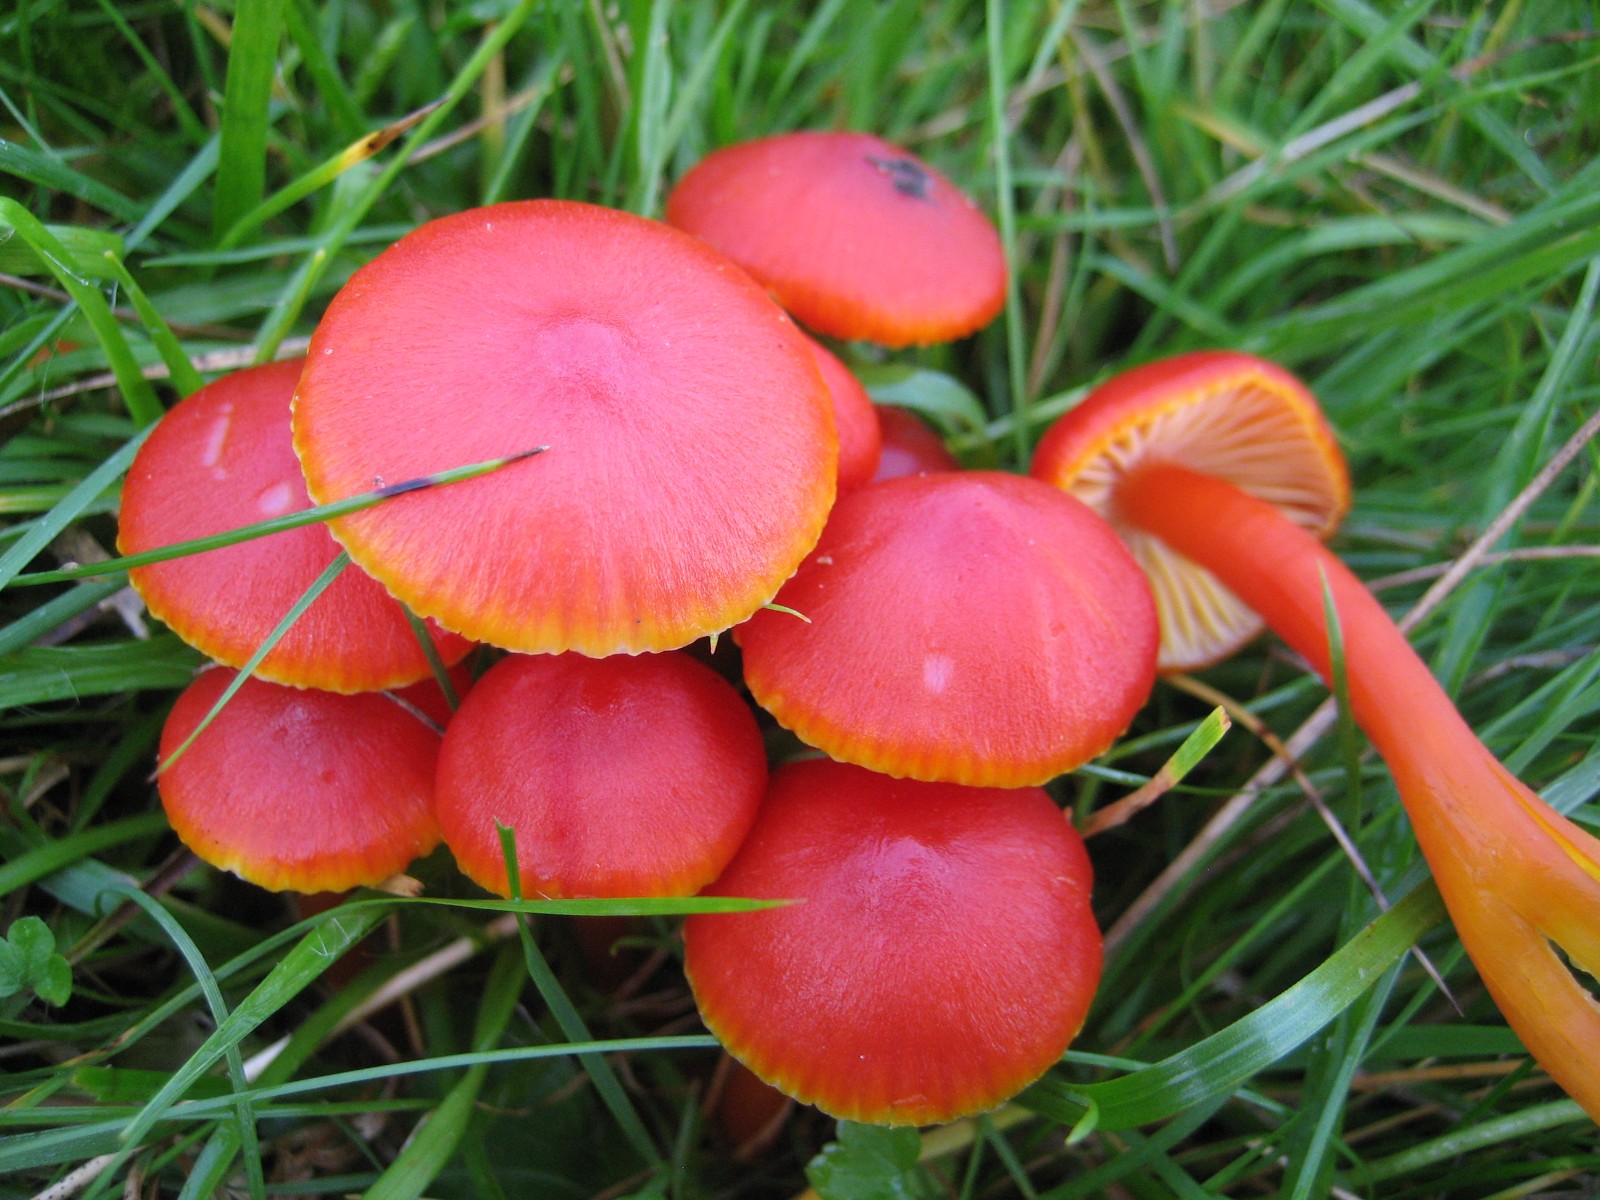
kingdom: Fungi
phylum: Basidiomycota
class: Agaricomycetes
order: Agaricales
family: Hygrophoraceae
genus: Hygrocybe
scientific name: Hygrocybe coccinea
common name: cinnober-vokshat
